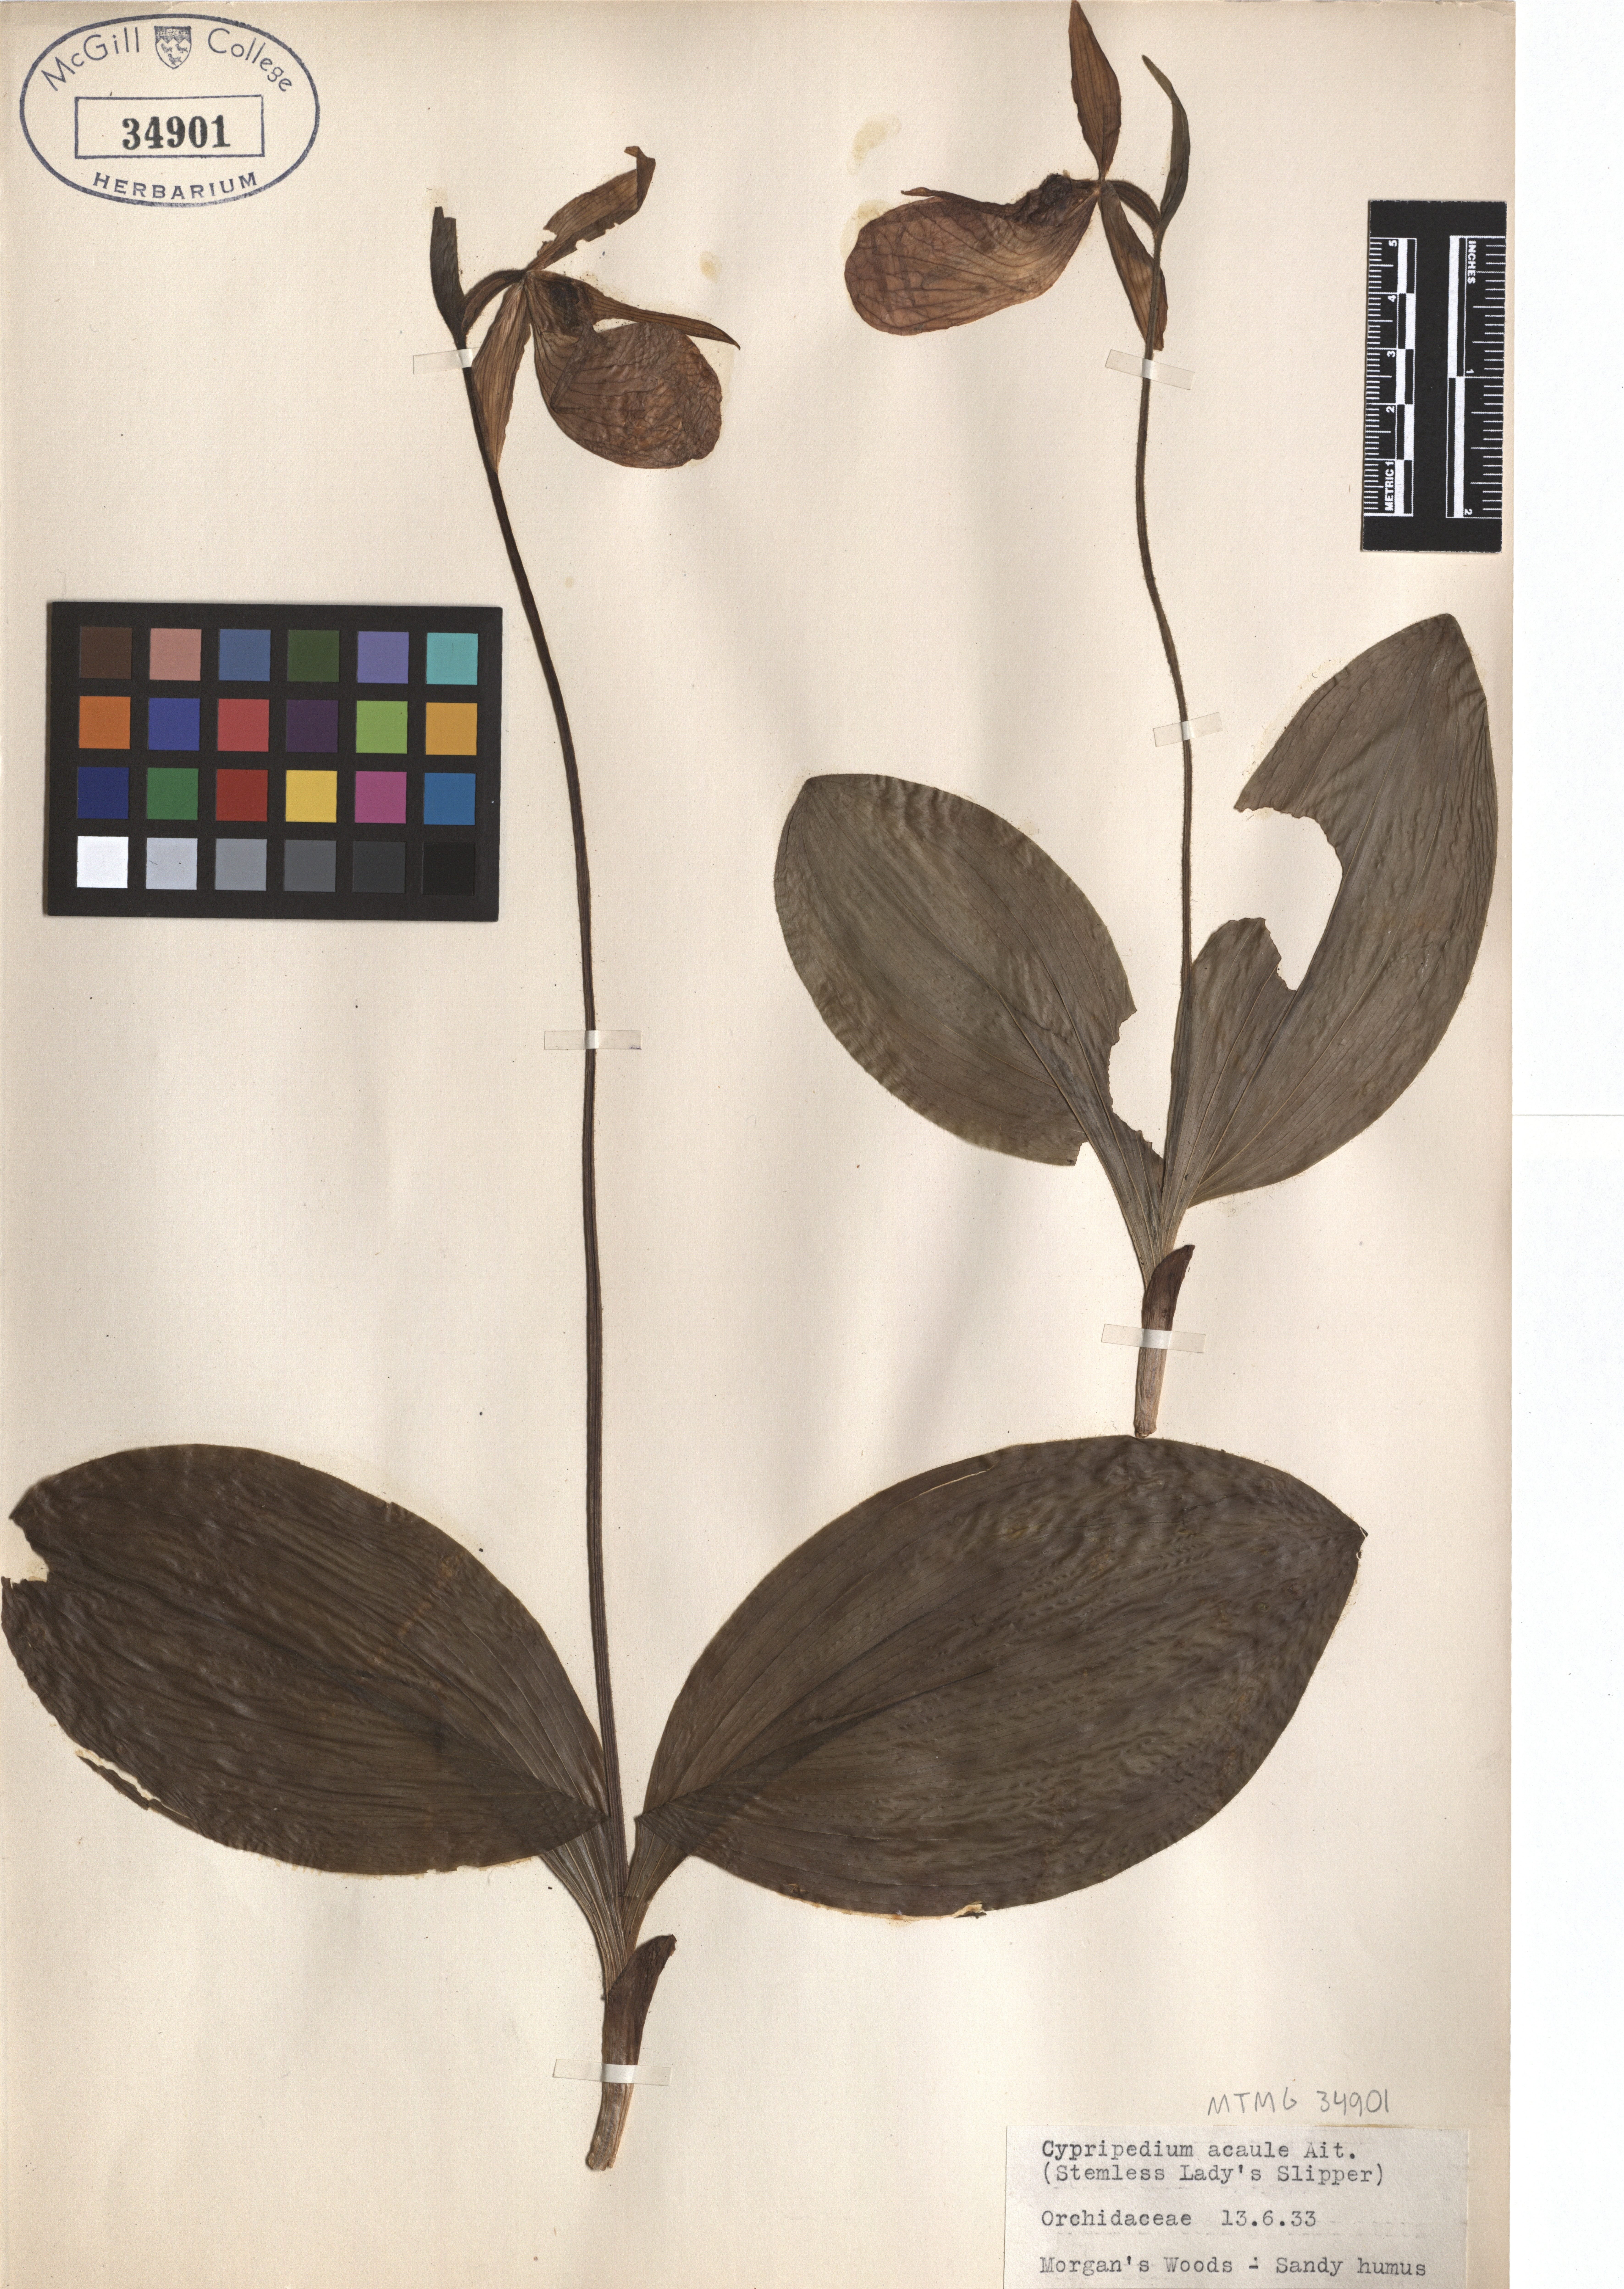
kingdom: Plantae
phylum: Tracheophyta
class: Liliopsida
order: Asparagales
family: Orchidaceae
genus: Cypripedium
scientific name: Cypripedium acaule
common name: Pink lady's-slipper
